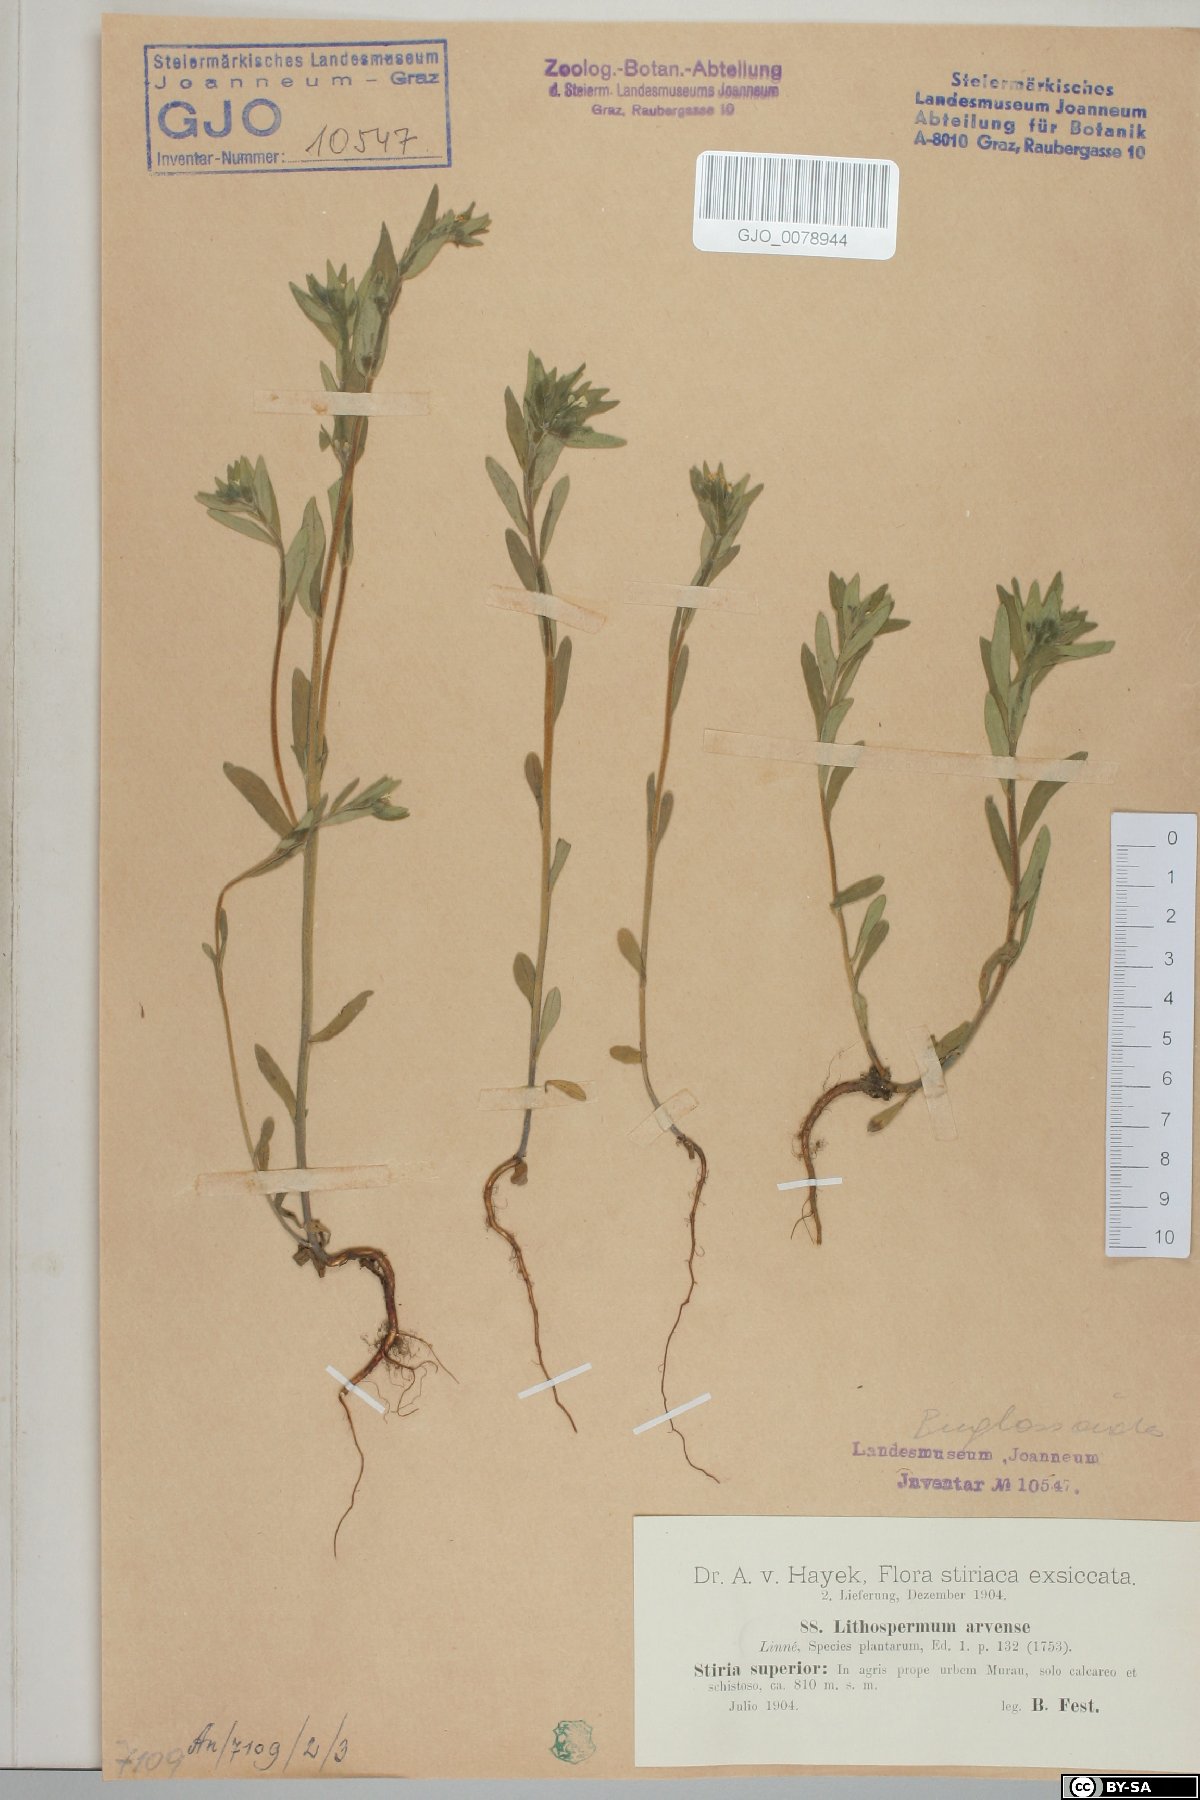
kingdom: Plantae
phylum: Tracheophyta
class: Magnoliopsida
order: Boraginales
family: Boraginaceae
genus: Buglossoides
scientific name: Buglossoides arvensis
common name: Corn gromwell
